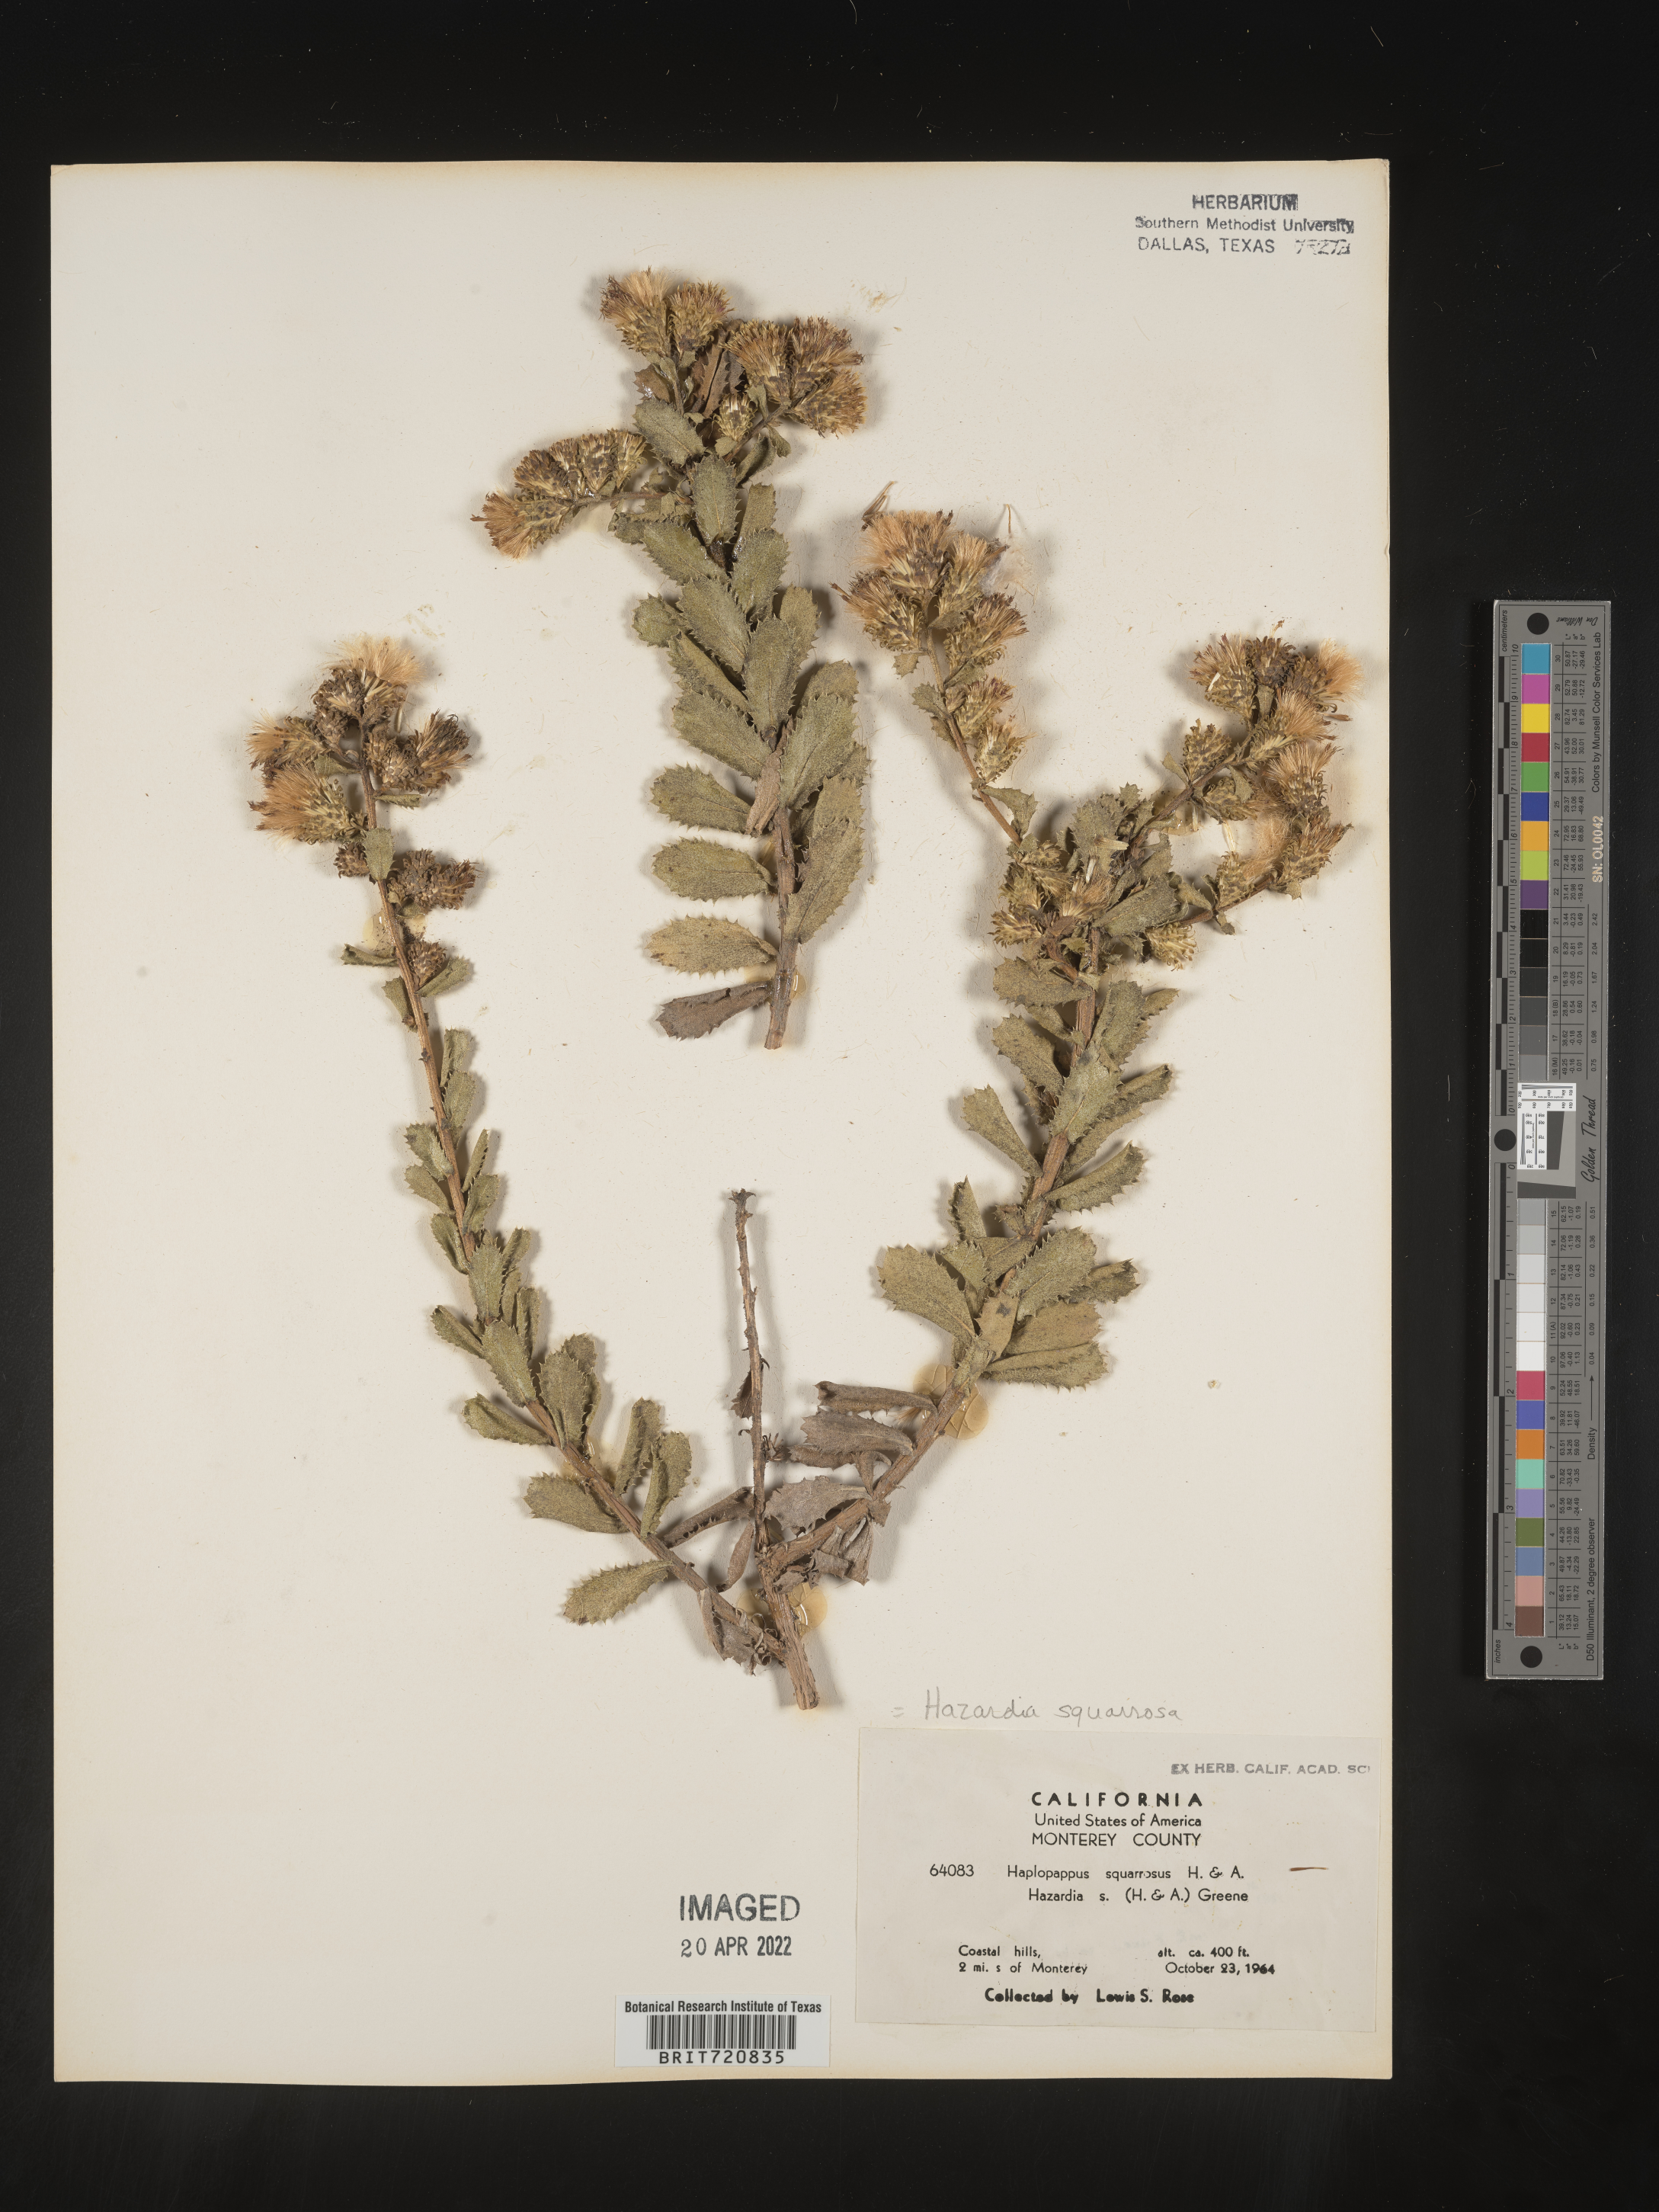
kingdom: Plantae
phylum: Tracheophyta
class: Magnoliopsida
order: Asterales
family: Asteraceae
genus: Hazardia
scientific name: Hazardia squarrosa
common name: Saw-tooth goldenbush
